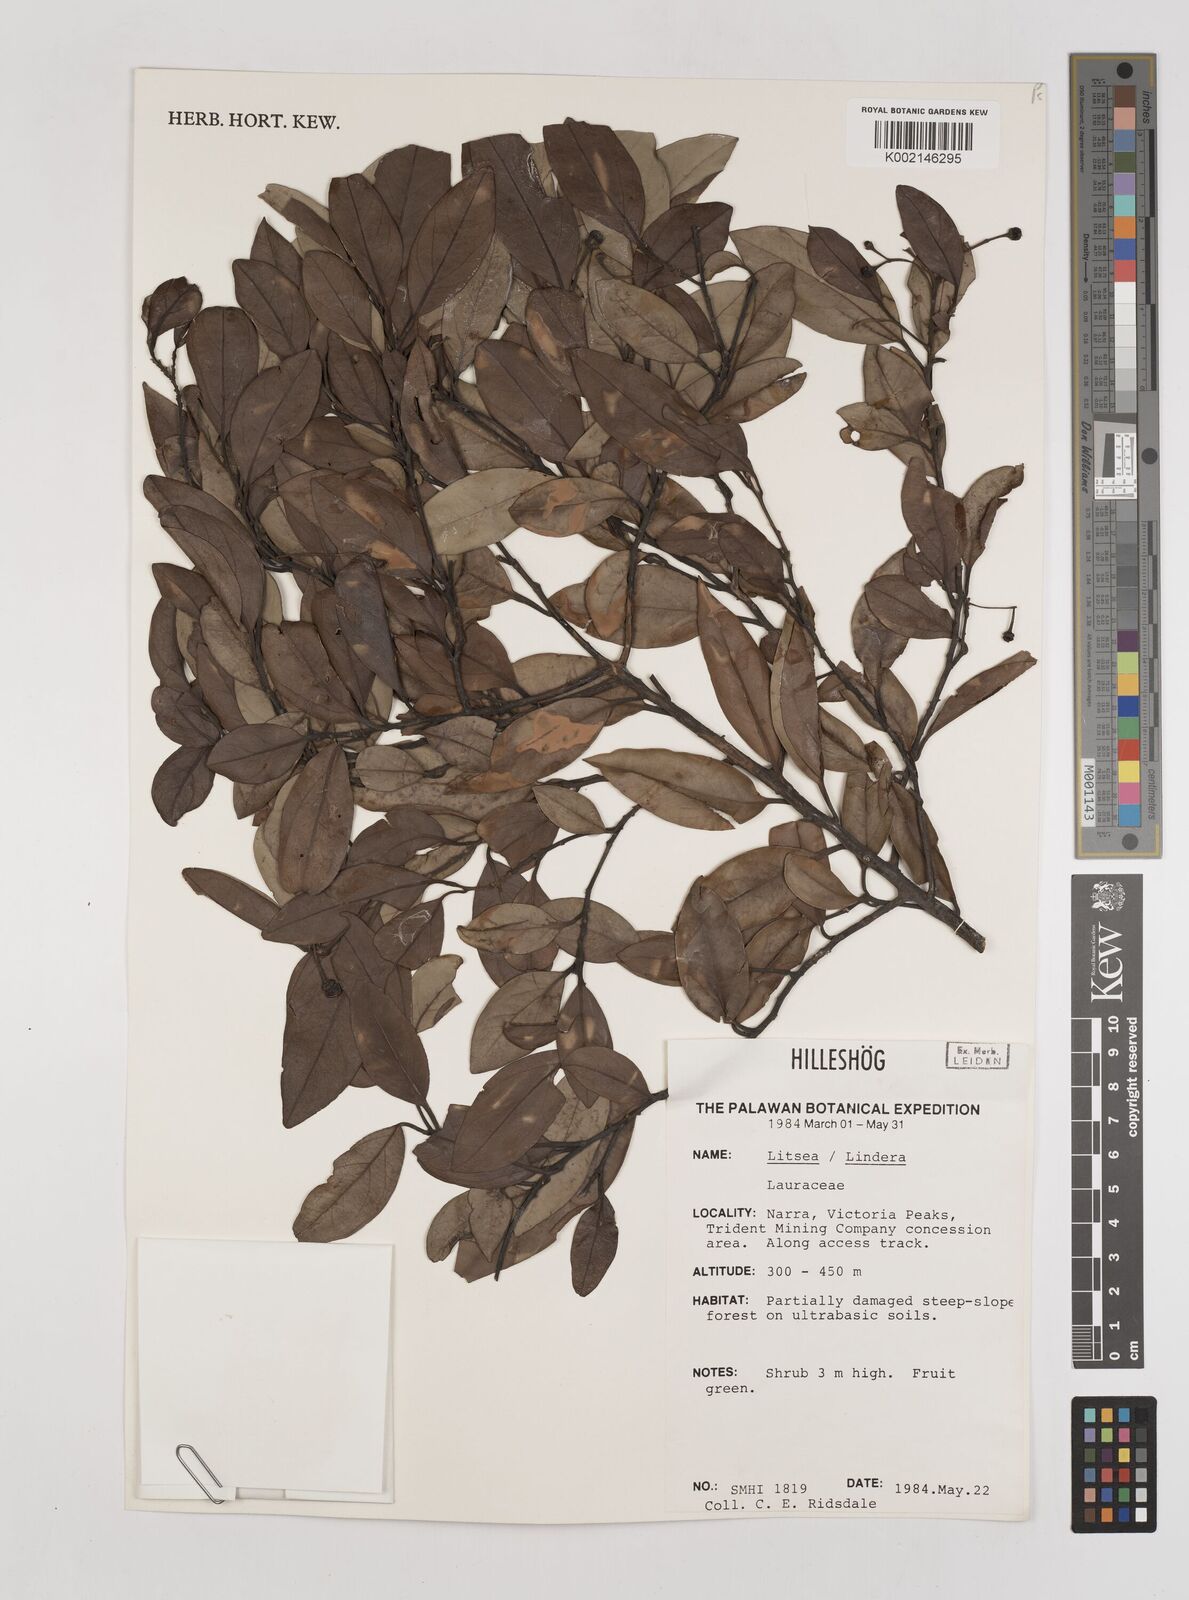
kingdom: Plantae
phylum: Tracheophyta
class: Magnoliopsida
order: Laurales
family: Lauraceae
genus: Litsea
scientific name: Litsea
